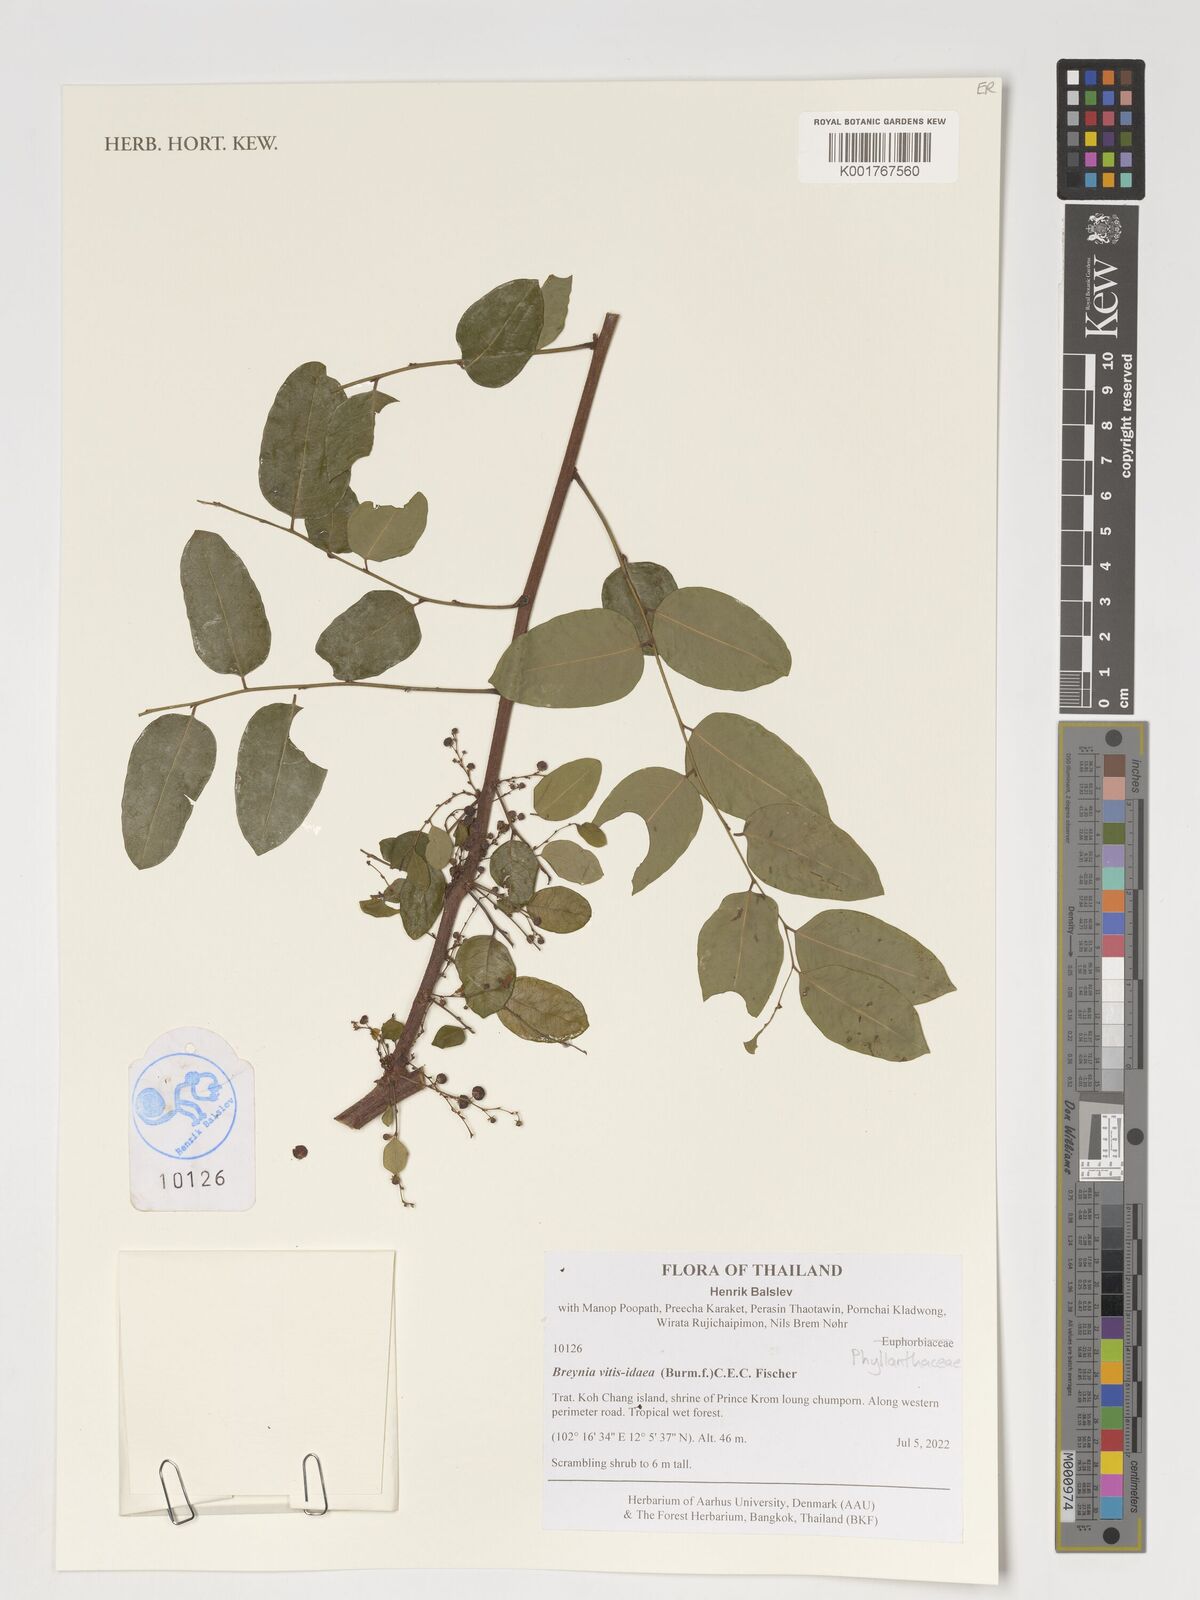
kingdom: Plantae
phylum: Tracheophyta
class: Magnoliopsida
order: Malpighiales
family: Phyllanthaceae
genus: Breynia
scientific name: Breynia vitis-idaea
